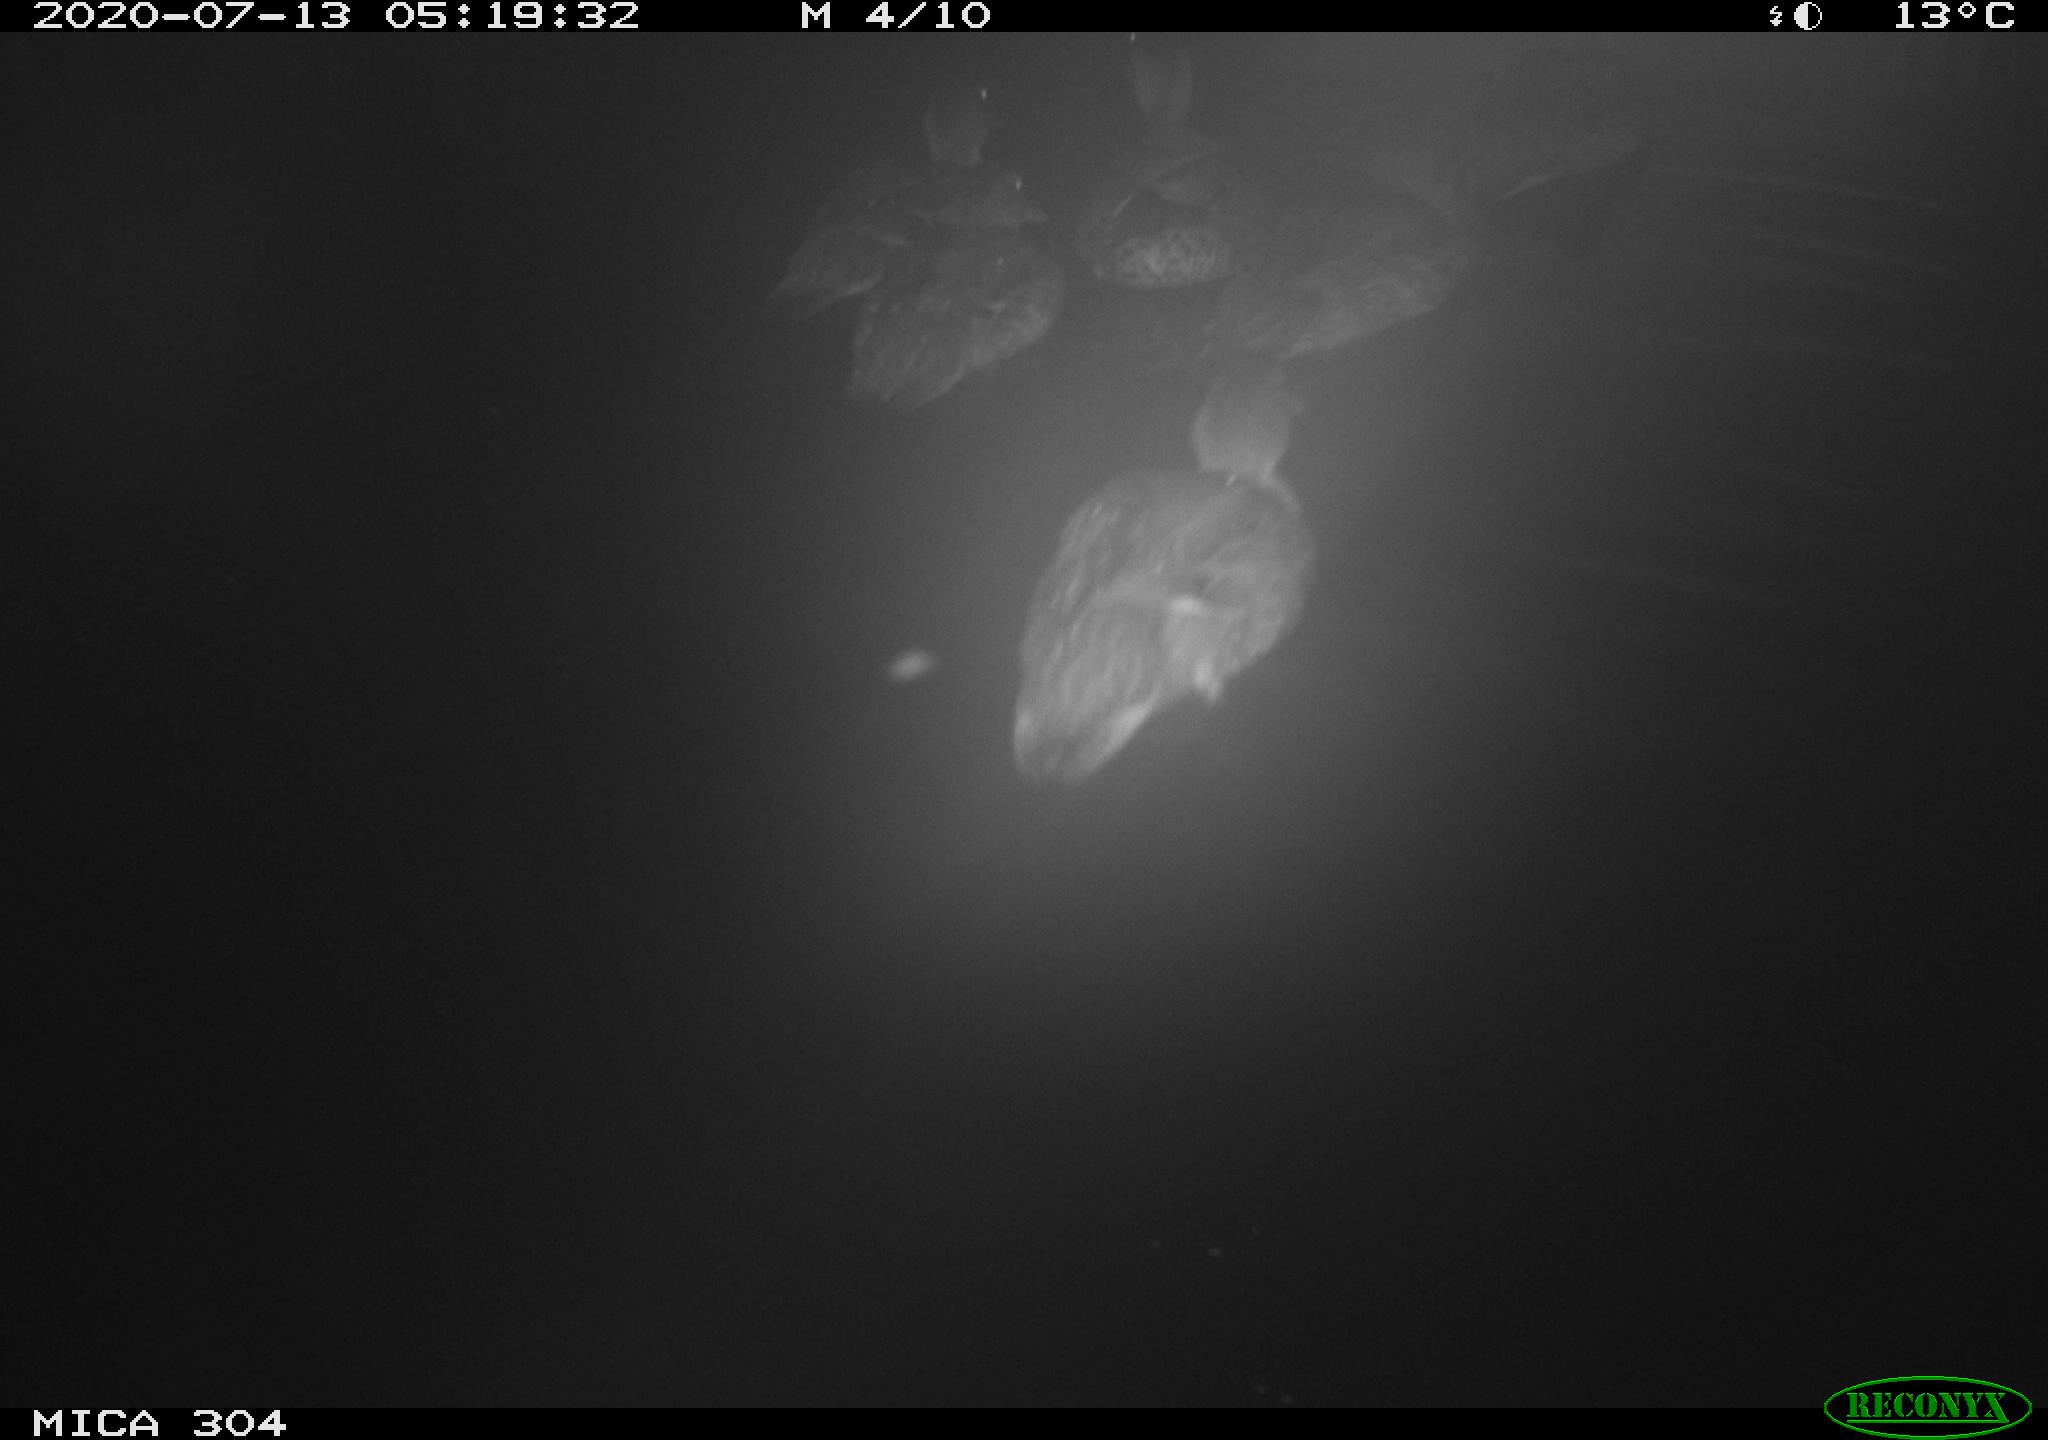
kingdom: Animalia
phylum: Chordata
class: Aves
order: Anseriformes
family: Anatidae
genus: Anas
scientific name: Anas platyrhynchos
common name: Mallard
